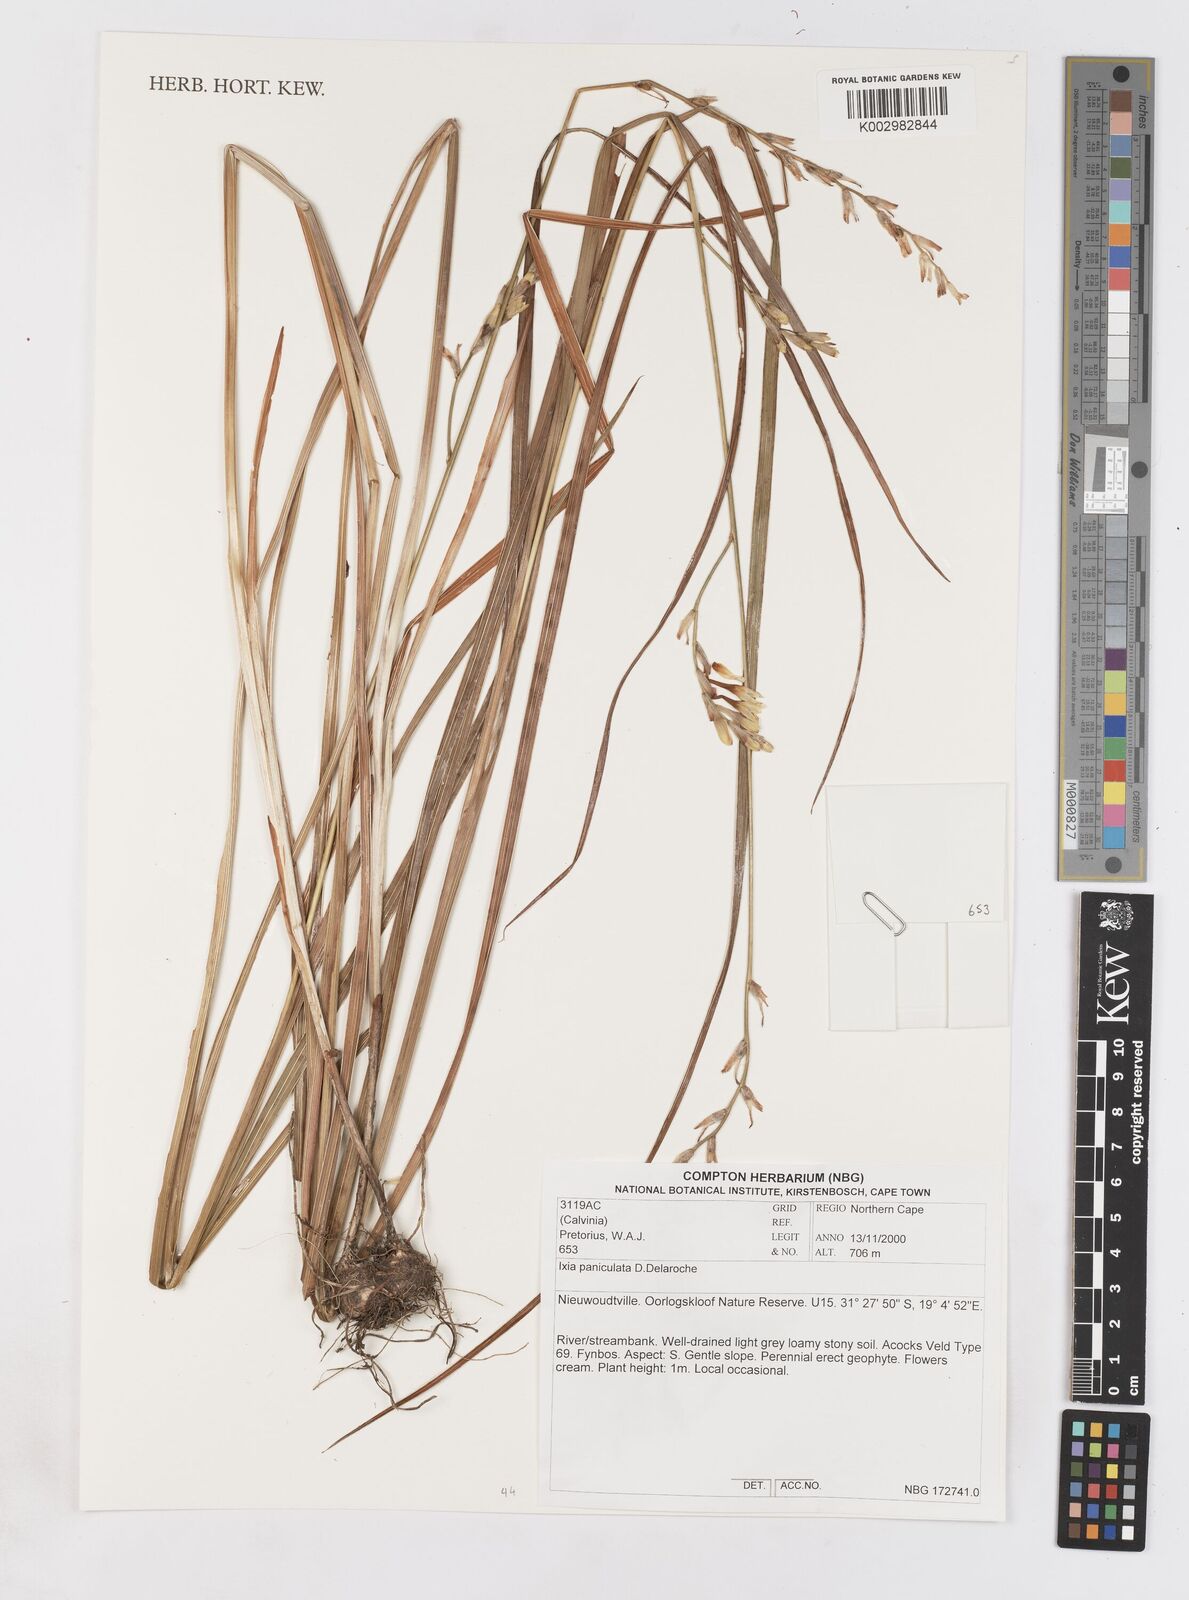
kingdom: Plantae
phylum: Tracheophyta
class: Liliopsida
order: Asparagales
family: Iridaceae
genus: Ixia
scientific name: Ixia paniculata
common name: Tubular corn-lily
